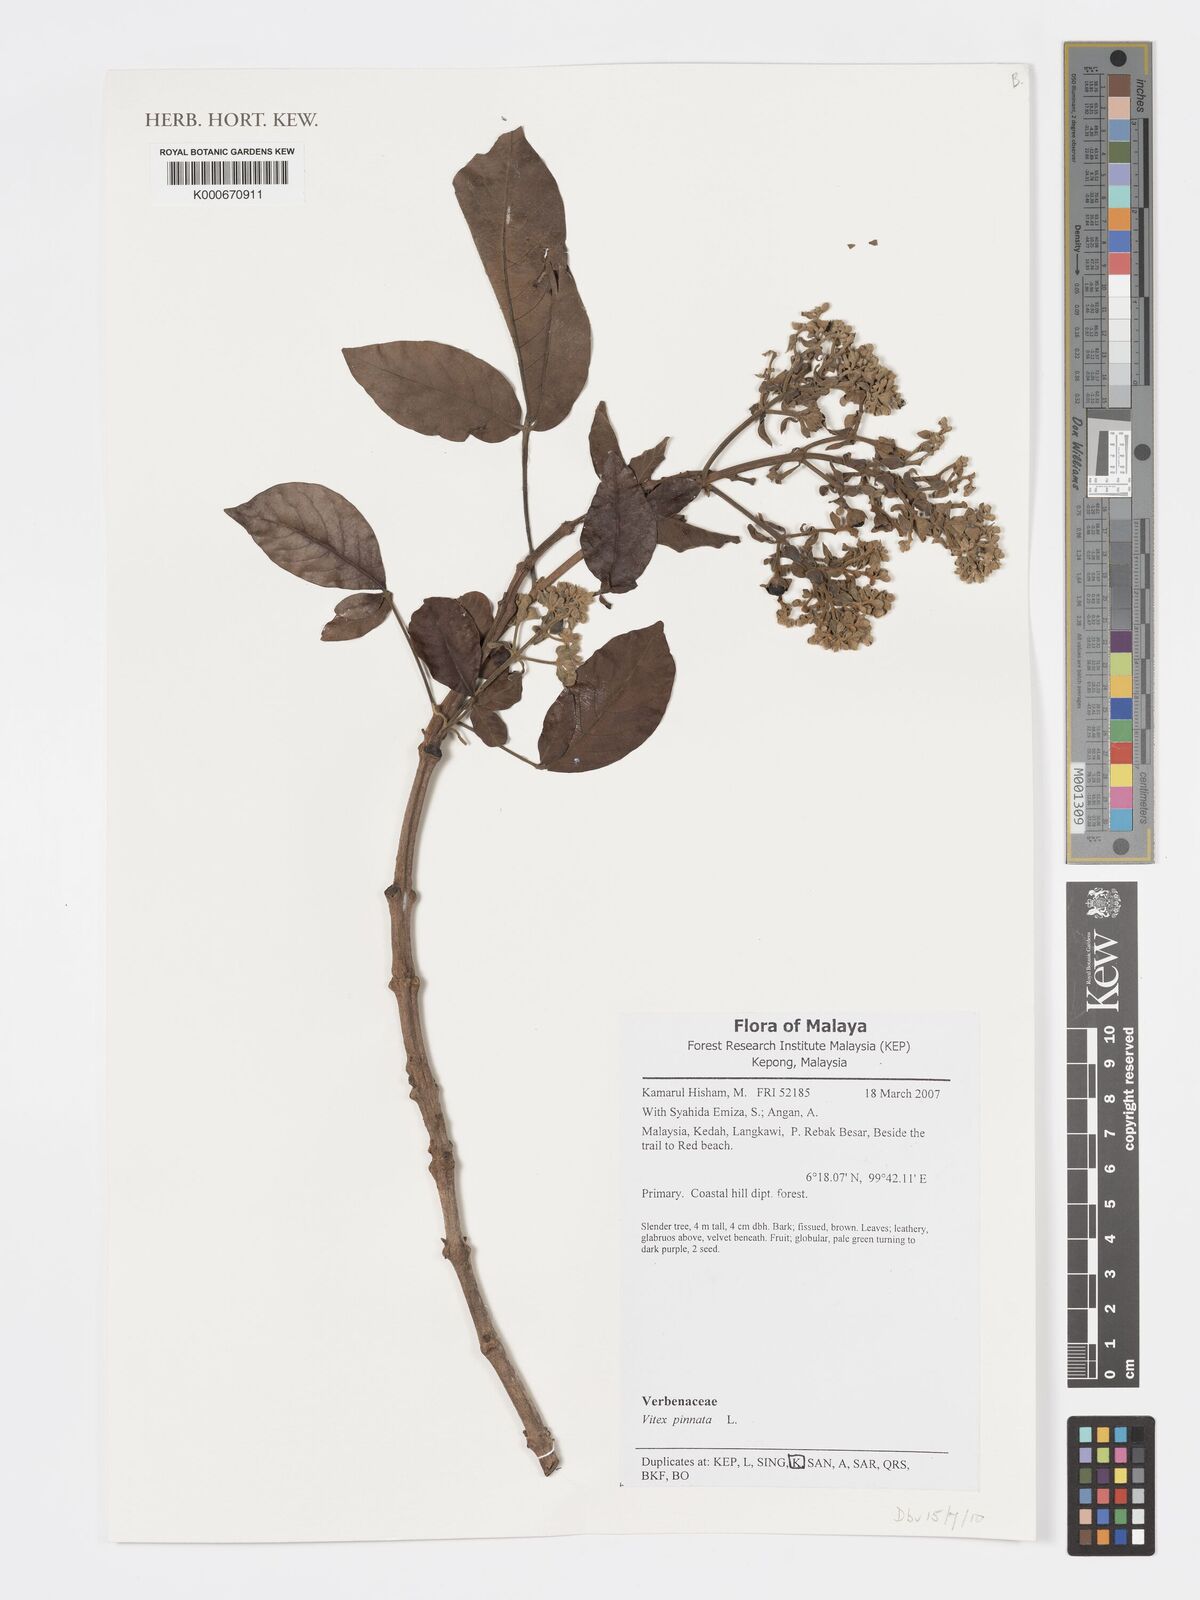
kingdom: Plantae
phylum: Tracheophyta
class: Magnoliopsida
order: Lamiales
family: Lamiaceae
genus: Vitex
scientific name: Vitex pinnata
